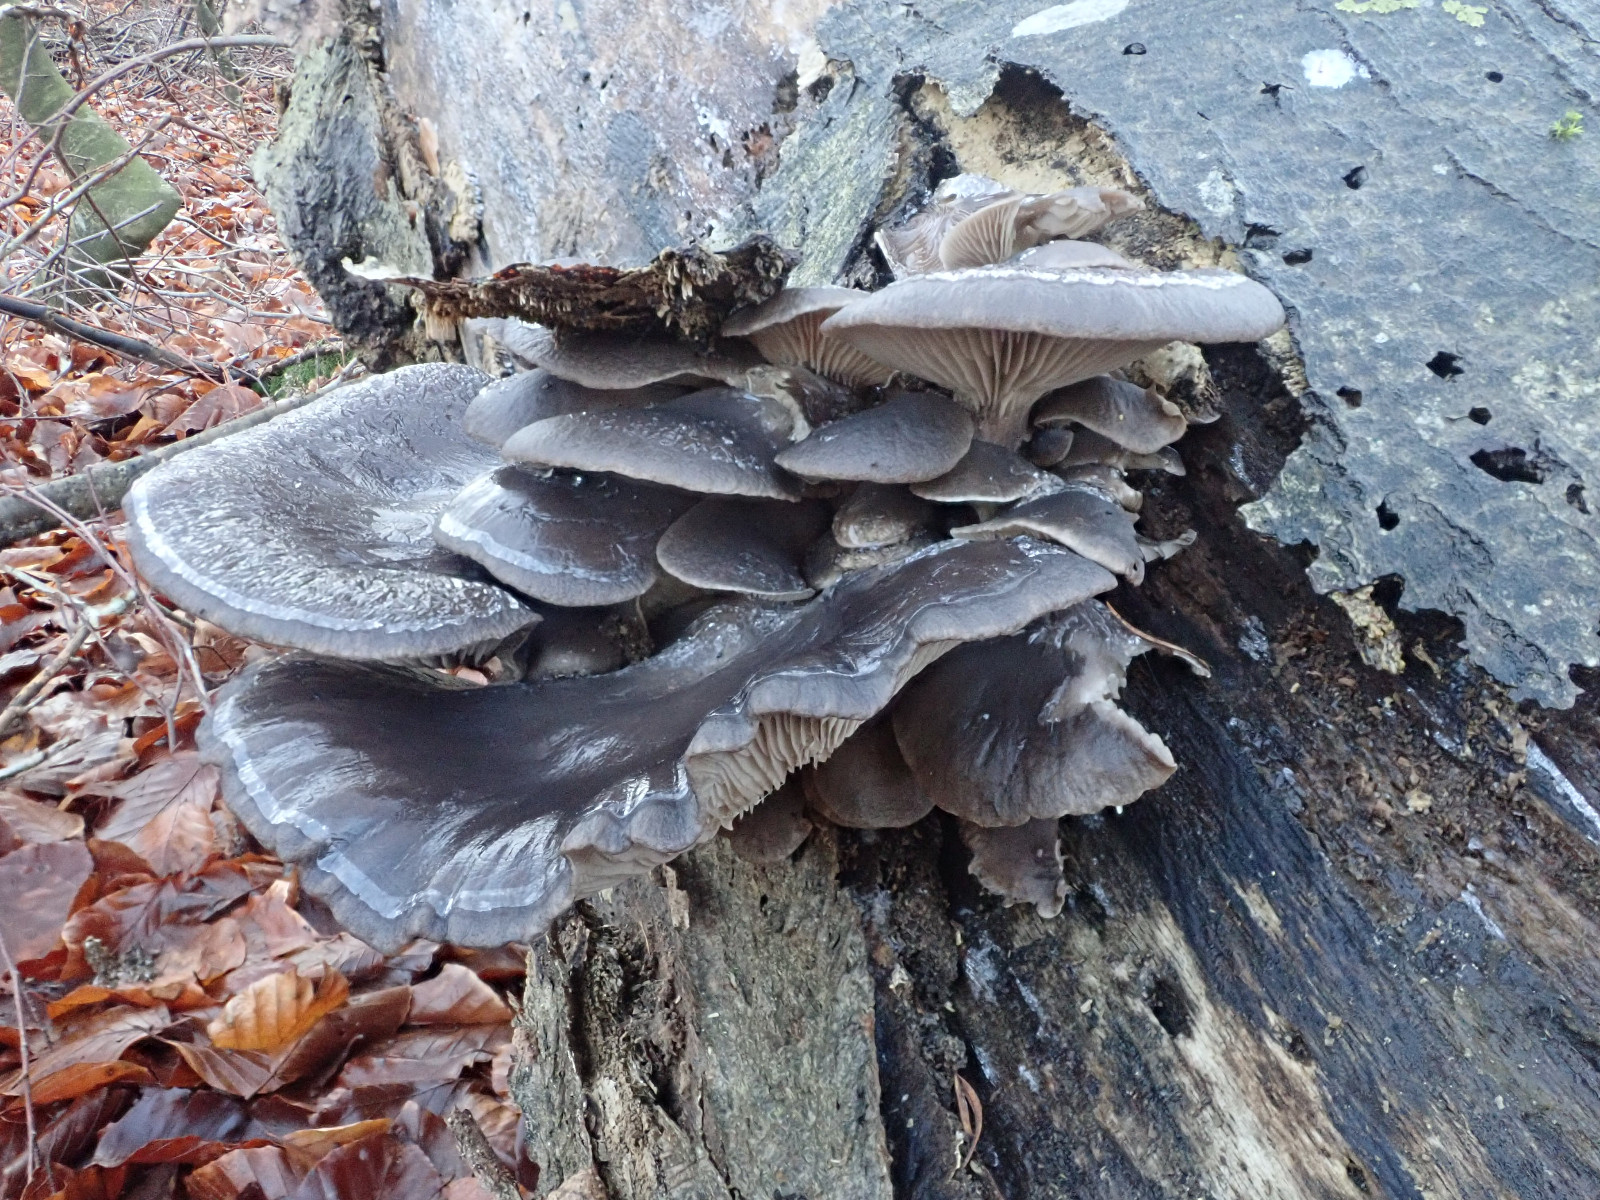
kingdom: Fungi
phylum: Basidiomycota
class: Agaricomycetes
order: Agaricales
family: Pleurotaceae
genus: Pleurotus
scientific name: Pleurotus ostreatus
